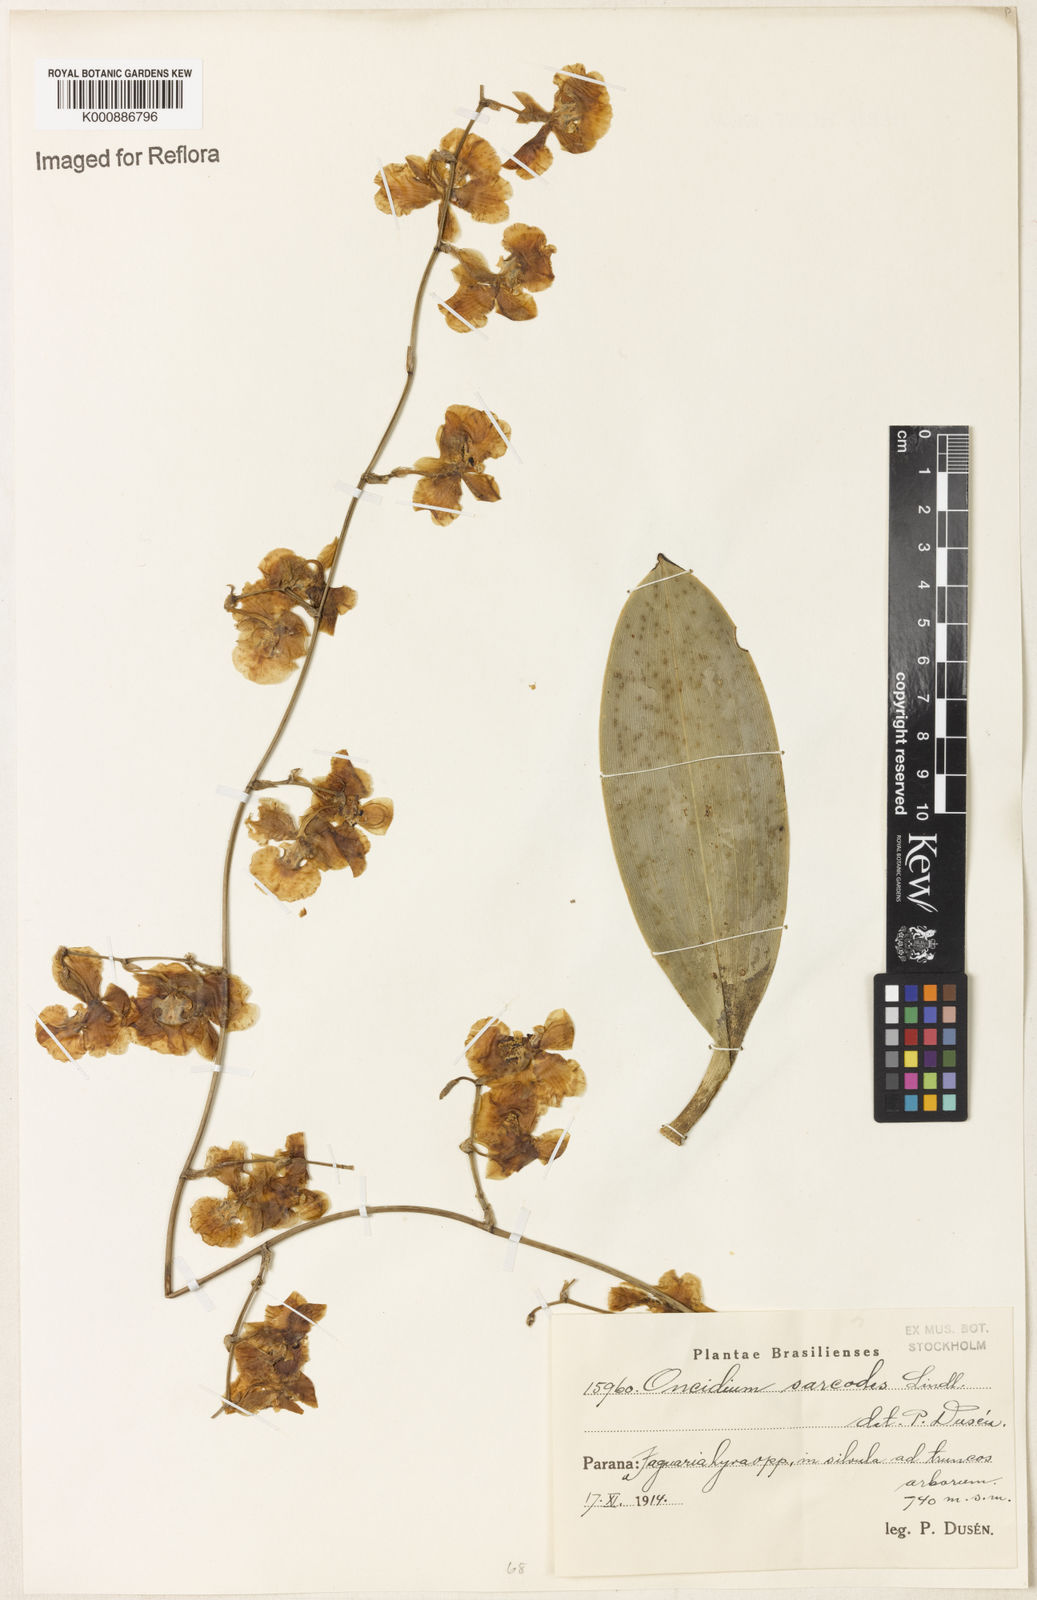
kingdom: Plantae
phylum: Tracheophyta
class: Liliopsida
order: Asparagales
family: Orchidaceae
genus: Gomesa
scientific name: Gomesa sarcodes
